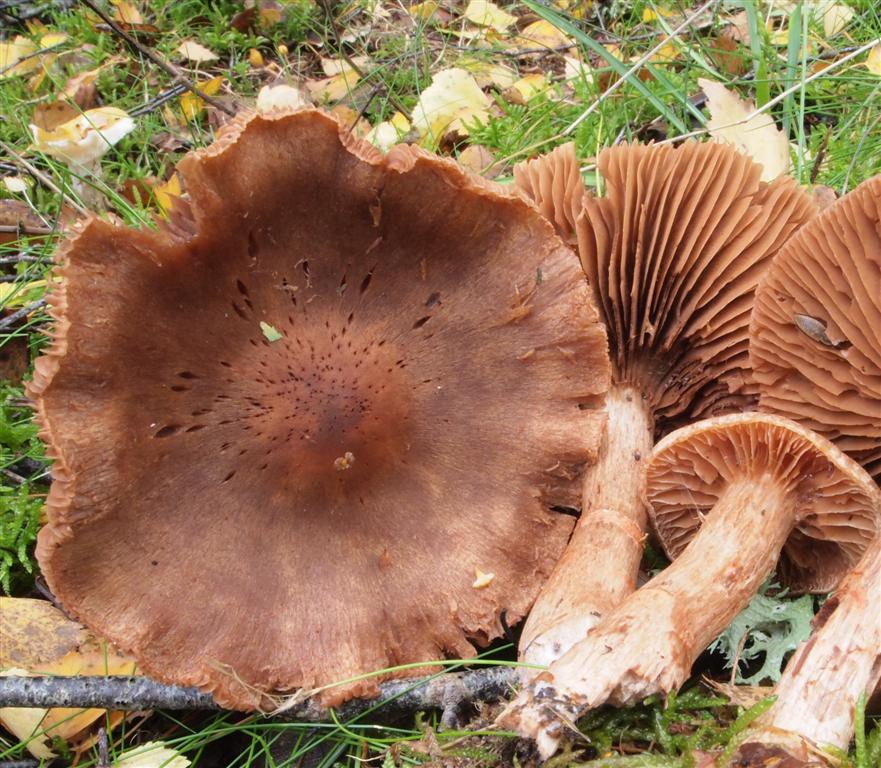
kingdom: Fungi
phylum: Basidiomycota
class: Agaricomycetes
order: Agaricales
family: Cortinariaceae
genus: Cortinarius
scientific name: Cortinarius armillatus
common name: cinnoberbæltet slørhat
